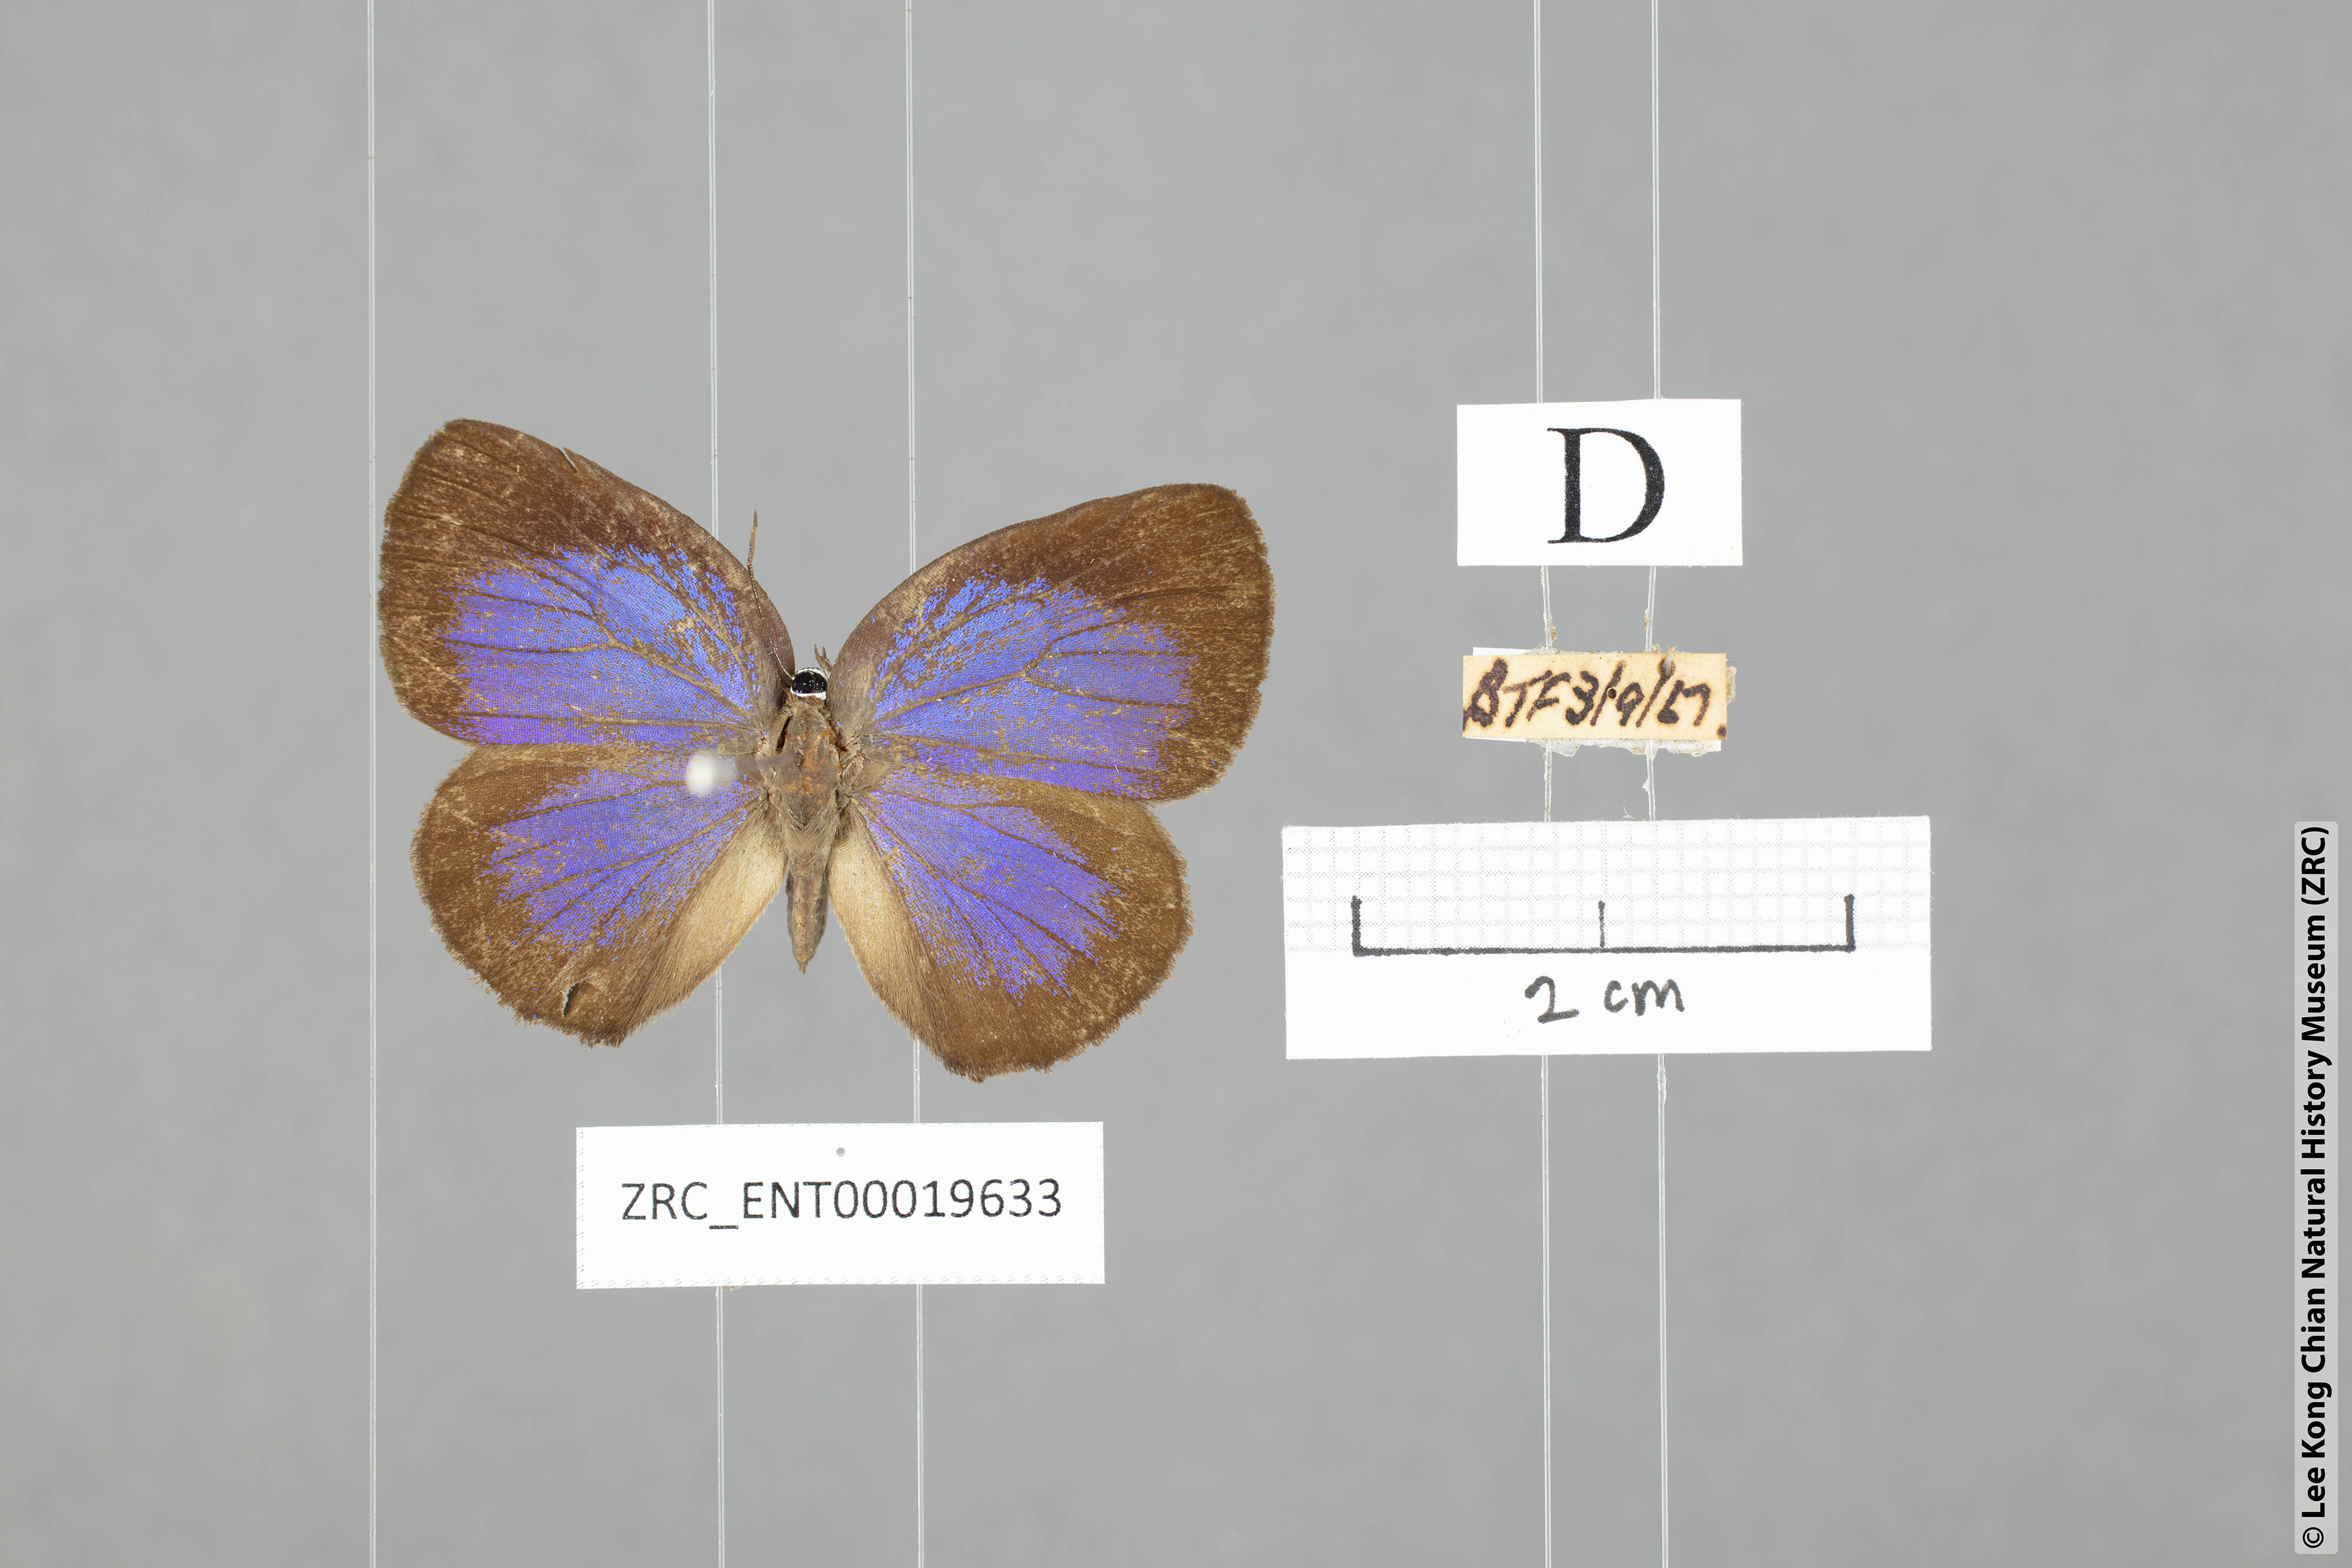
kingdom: Animalia
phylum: Arthropoda
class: Insecta
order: Lepidoptera
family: Lycaenidae
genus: Arhopala
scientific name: Arhopala major
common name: Major yellow oakblue
